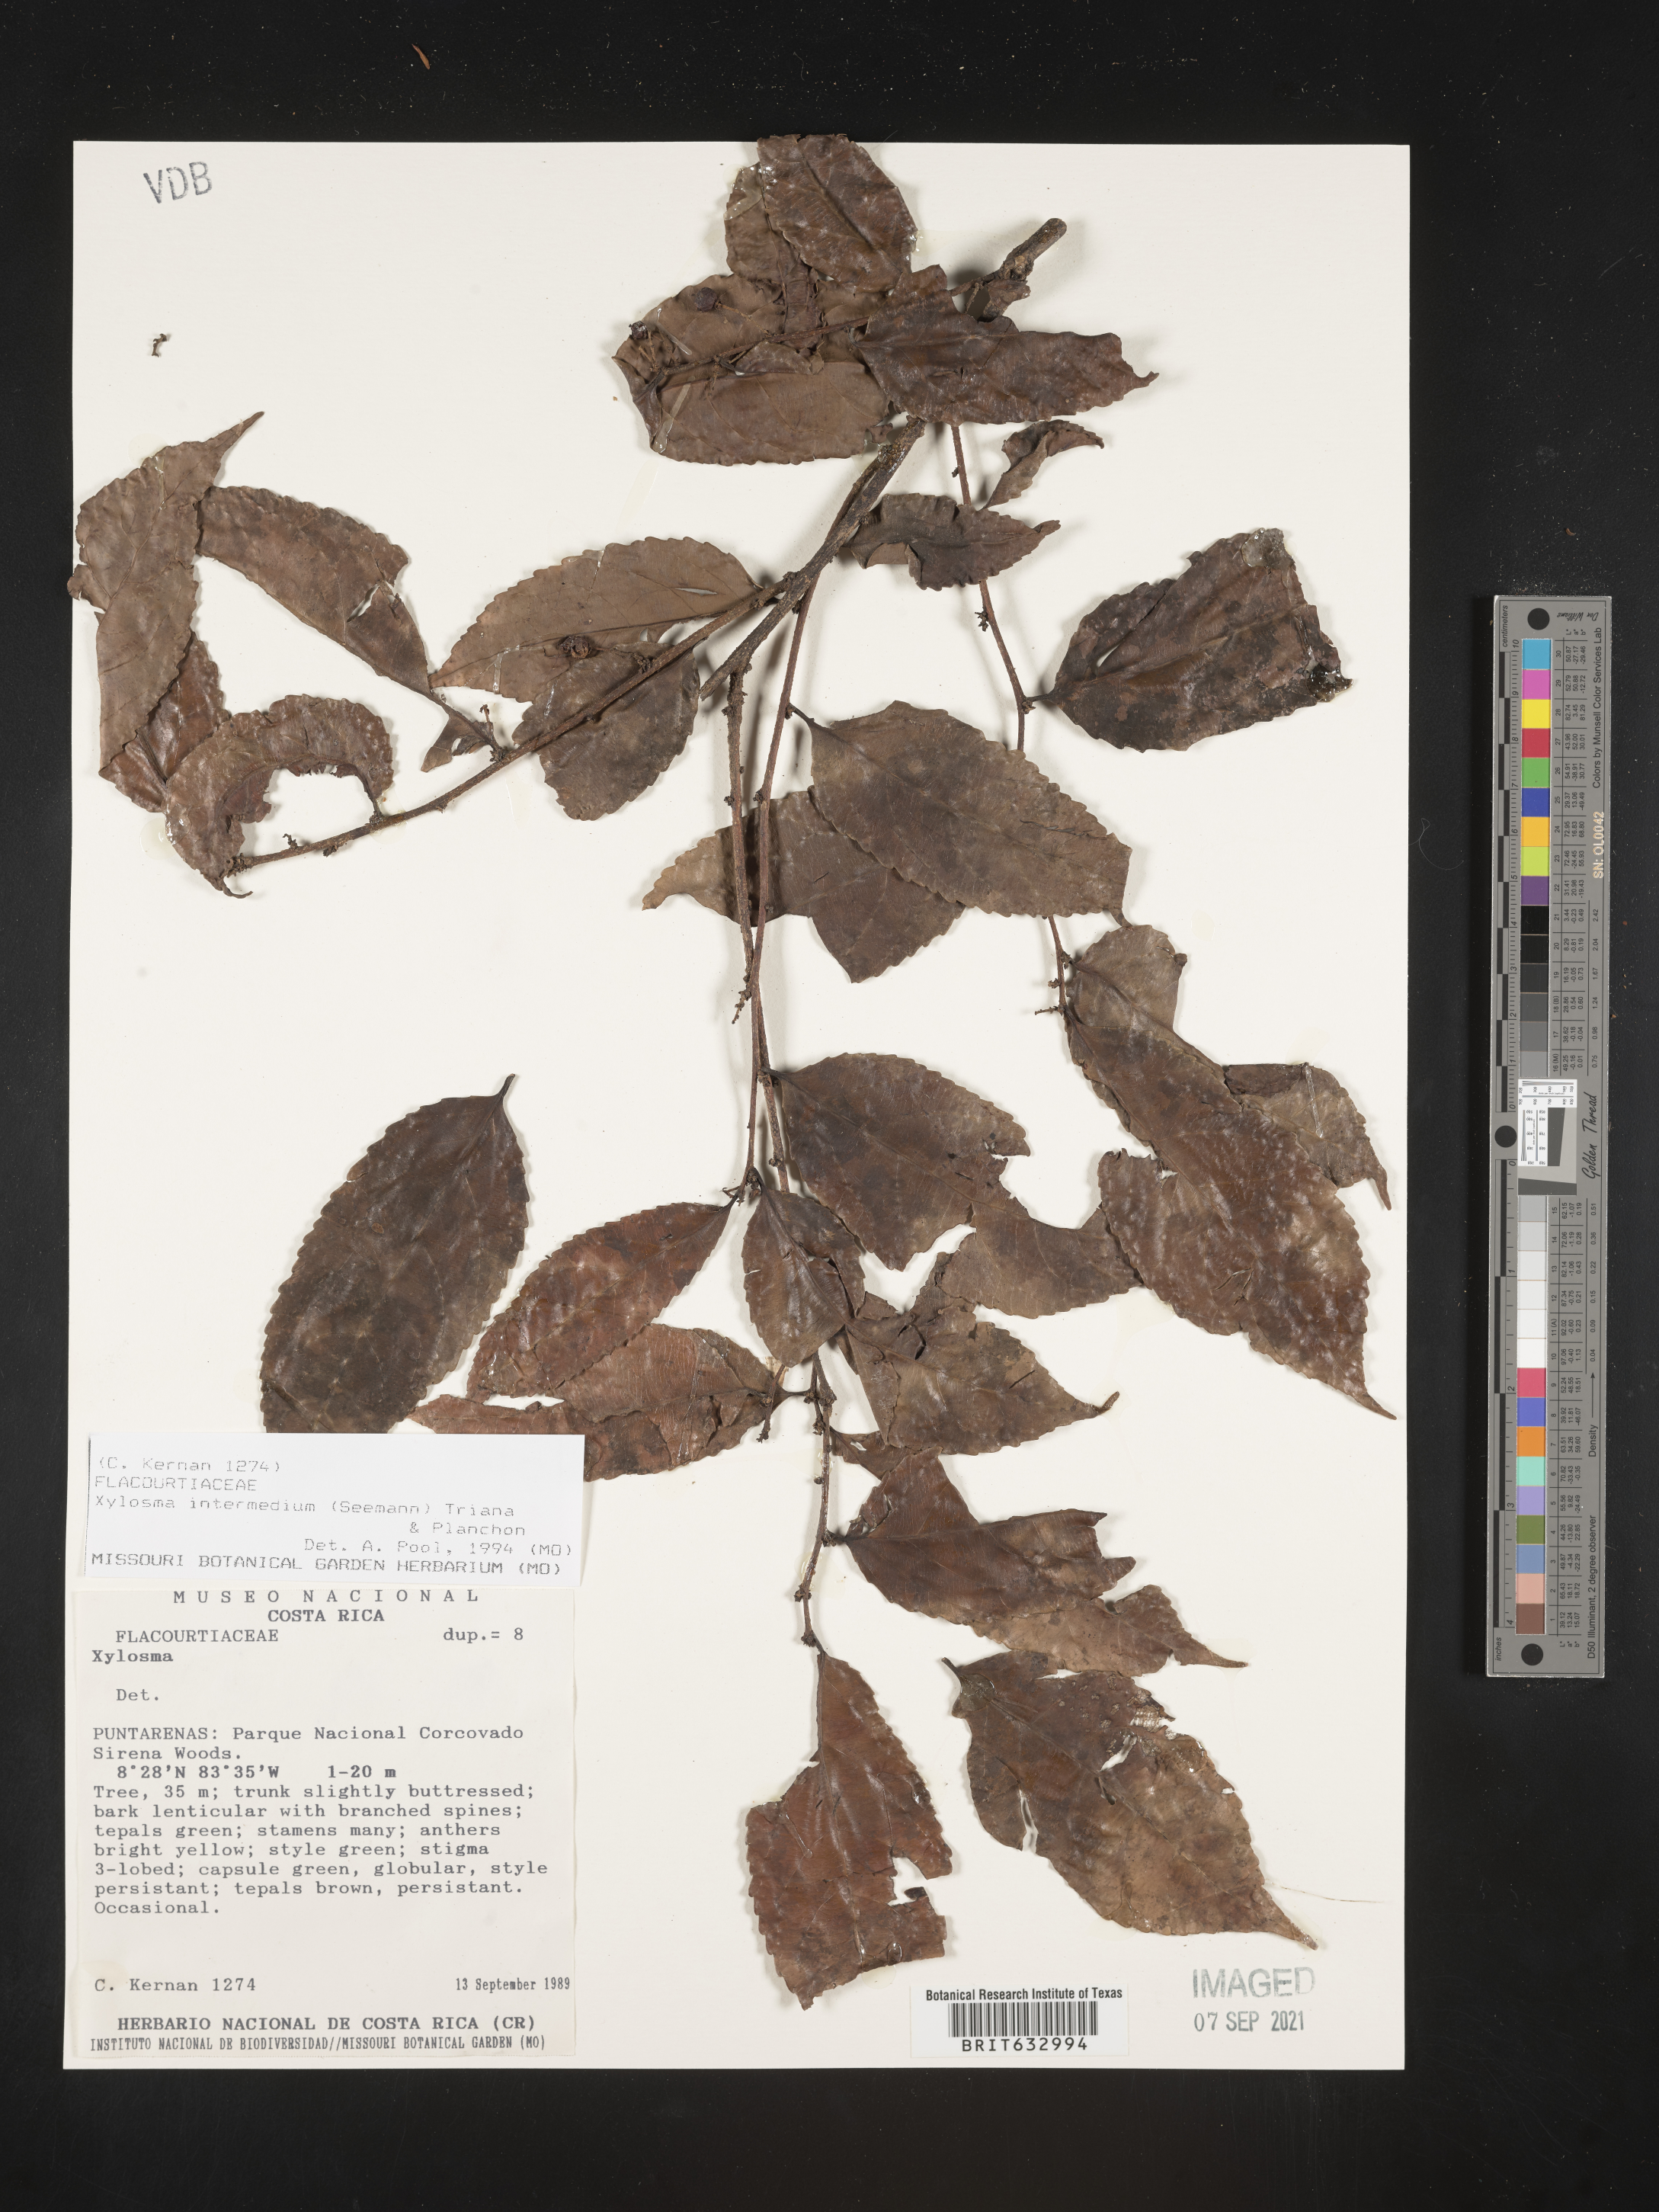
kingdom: Plantae
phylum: Tracheophyta
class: Magnoliopsida
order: Malpighiales
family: Salicaceae
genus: Xylosma
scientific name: Xylosma
